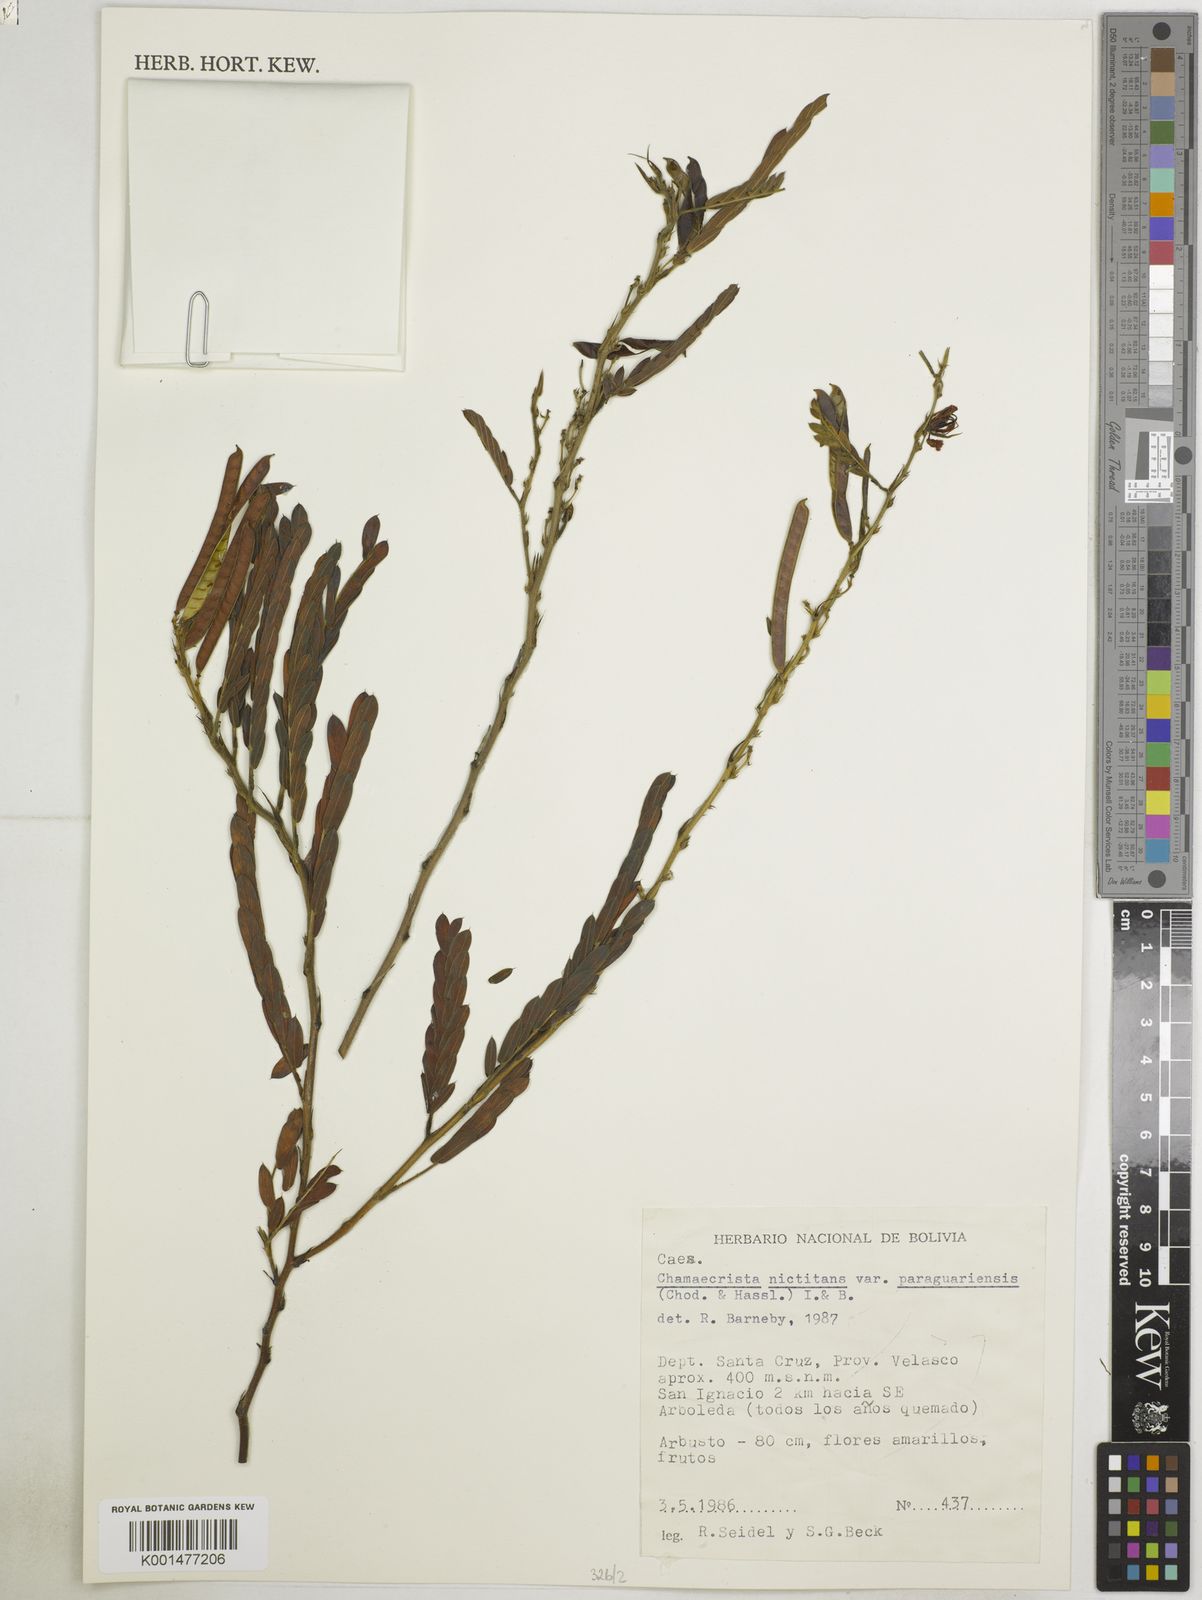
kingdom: Plantae
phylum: Tracheophyta
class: Magnoliopsida
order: Fabales
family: Fabaceae
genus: Chamaecrista
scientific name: Chamaecrista nictitans
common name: Sensitive cassia
